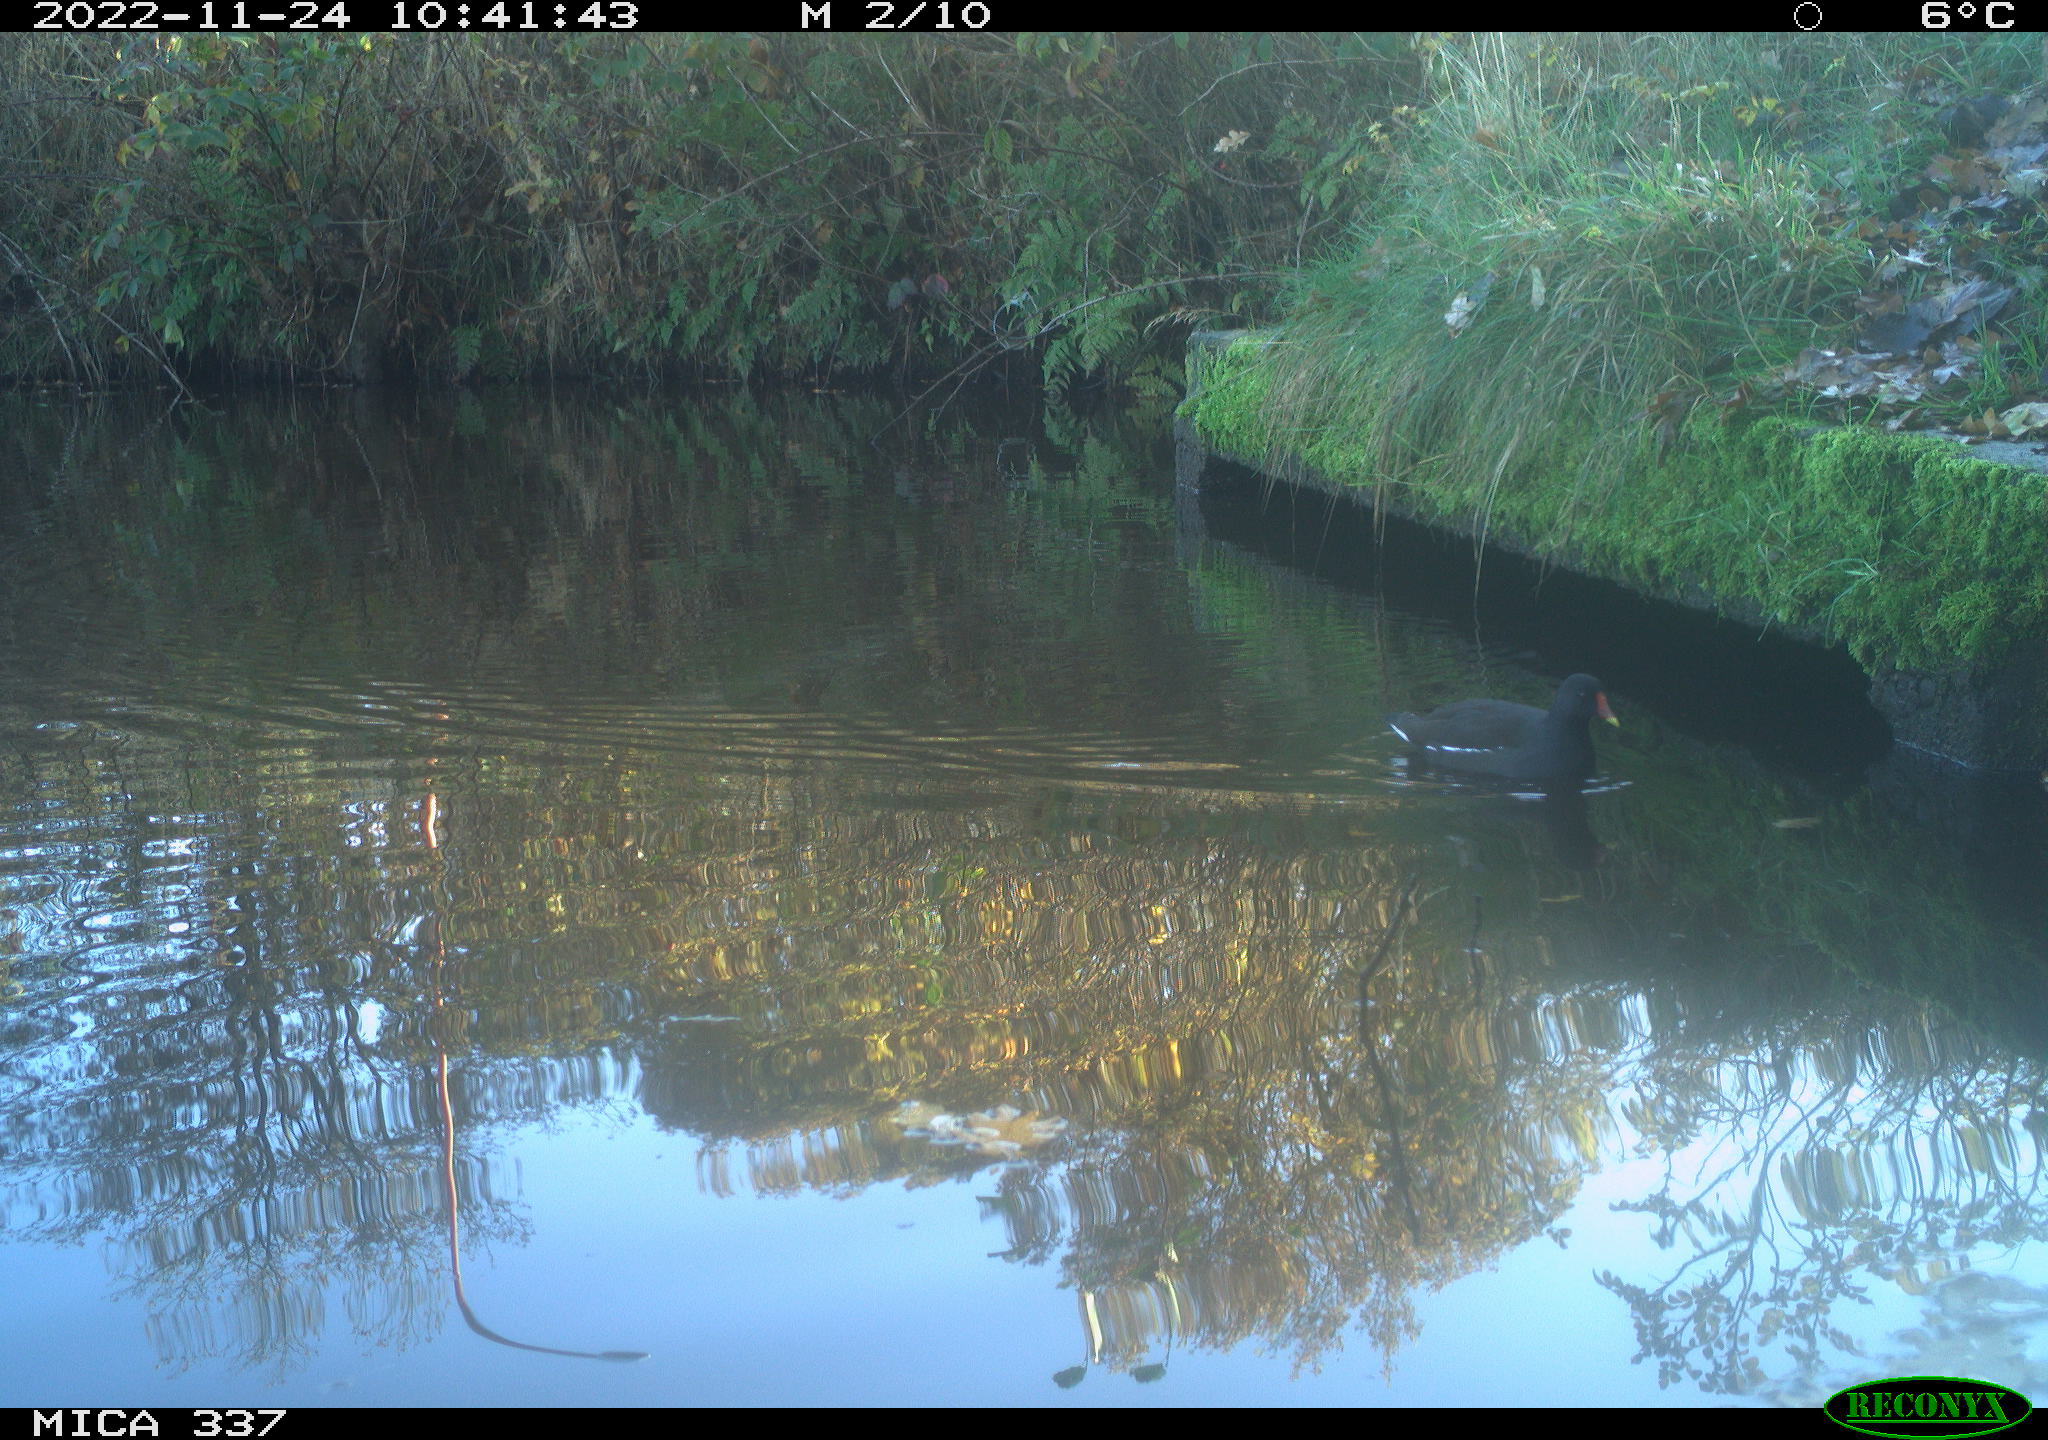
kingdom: Animalia
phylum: Chordata
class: Aves
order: Gruiformes
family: Rallidae
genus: Gallinula
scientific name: Gallinula chloropus
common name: Common moorhen
